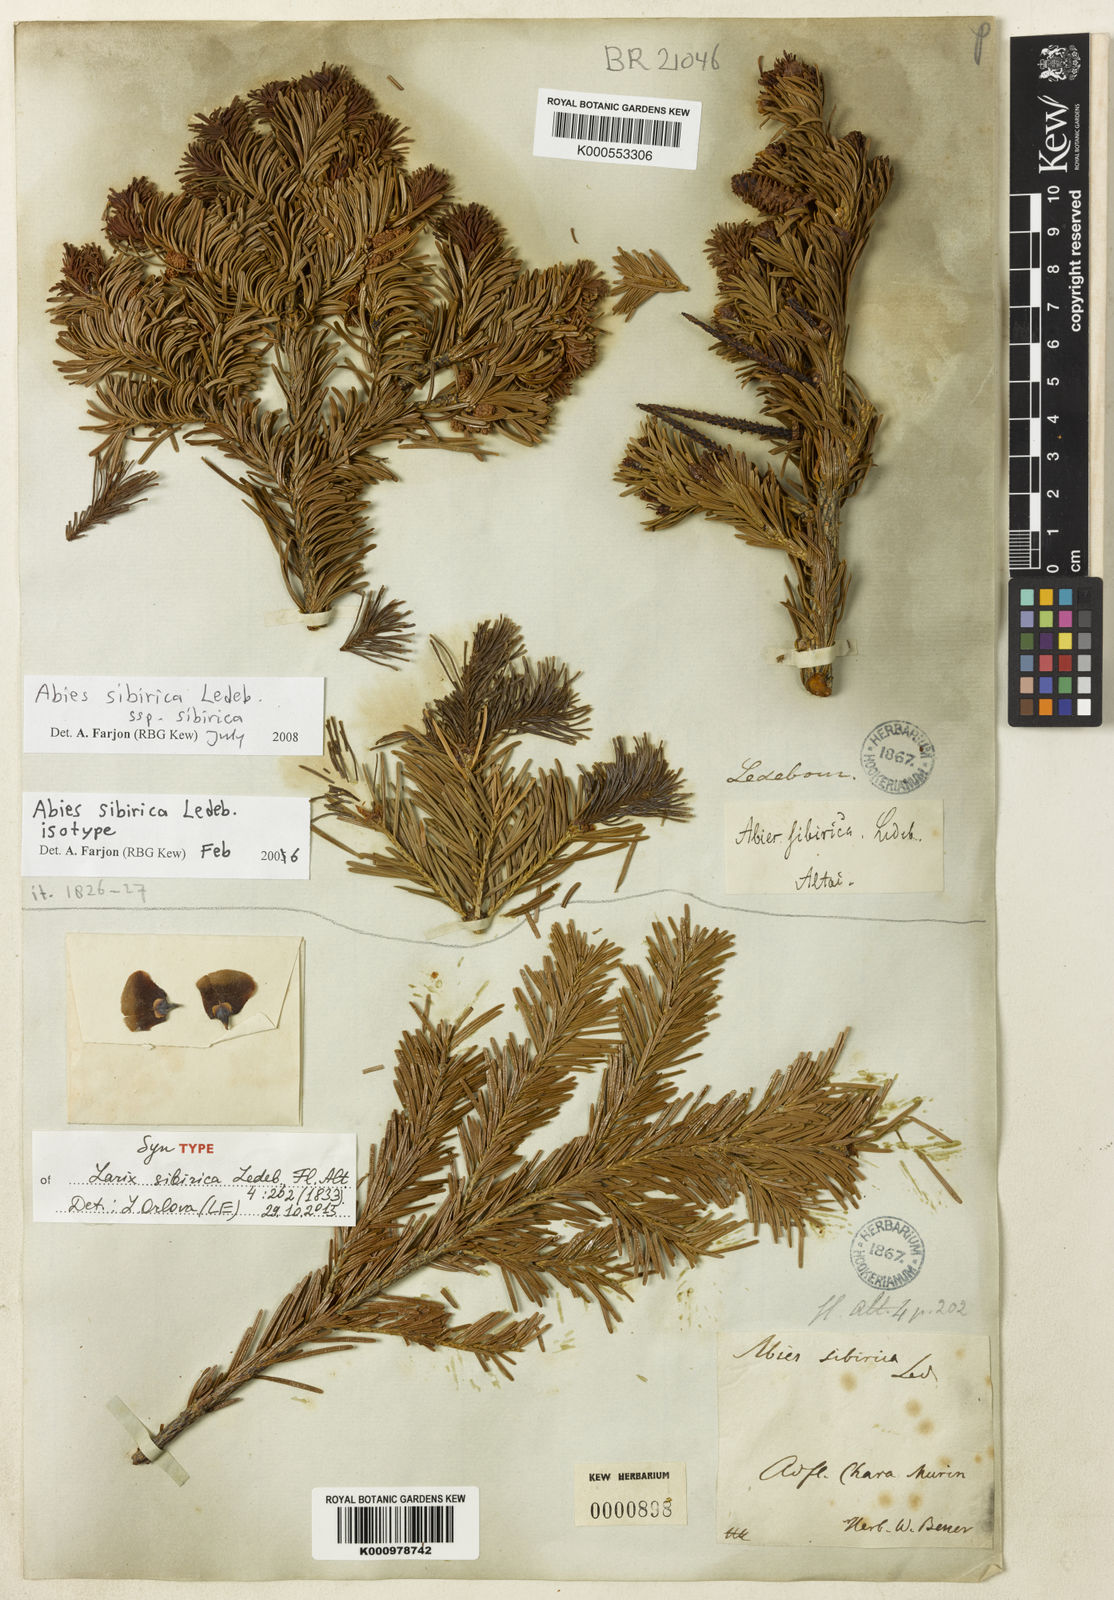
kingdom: Plantae
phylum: Tracheophyta
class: Pinopsida
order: Pinales
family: Pinaceae
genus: Abies
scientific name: Abies sibirica
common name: Siberian fir
